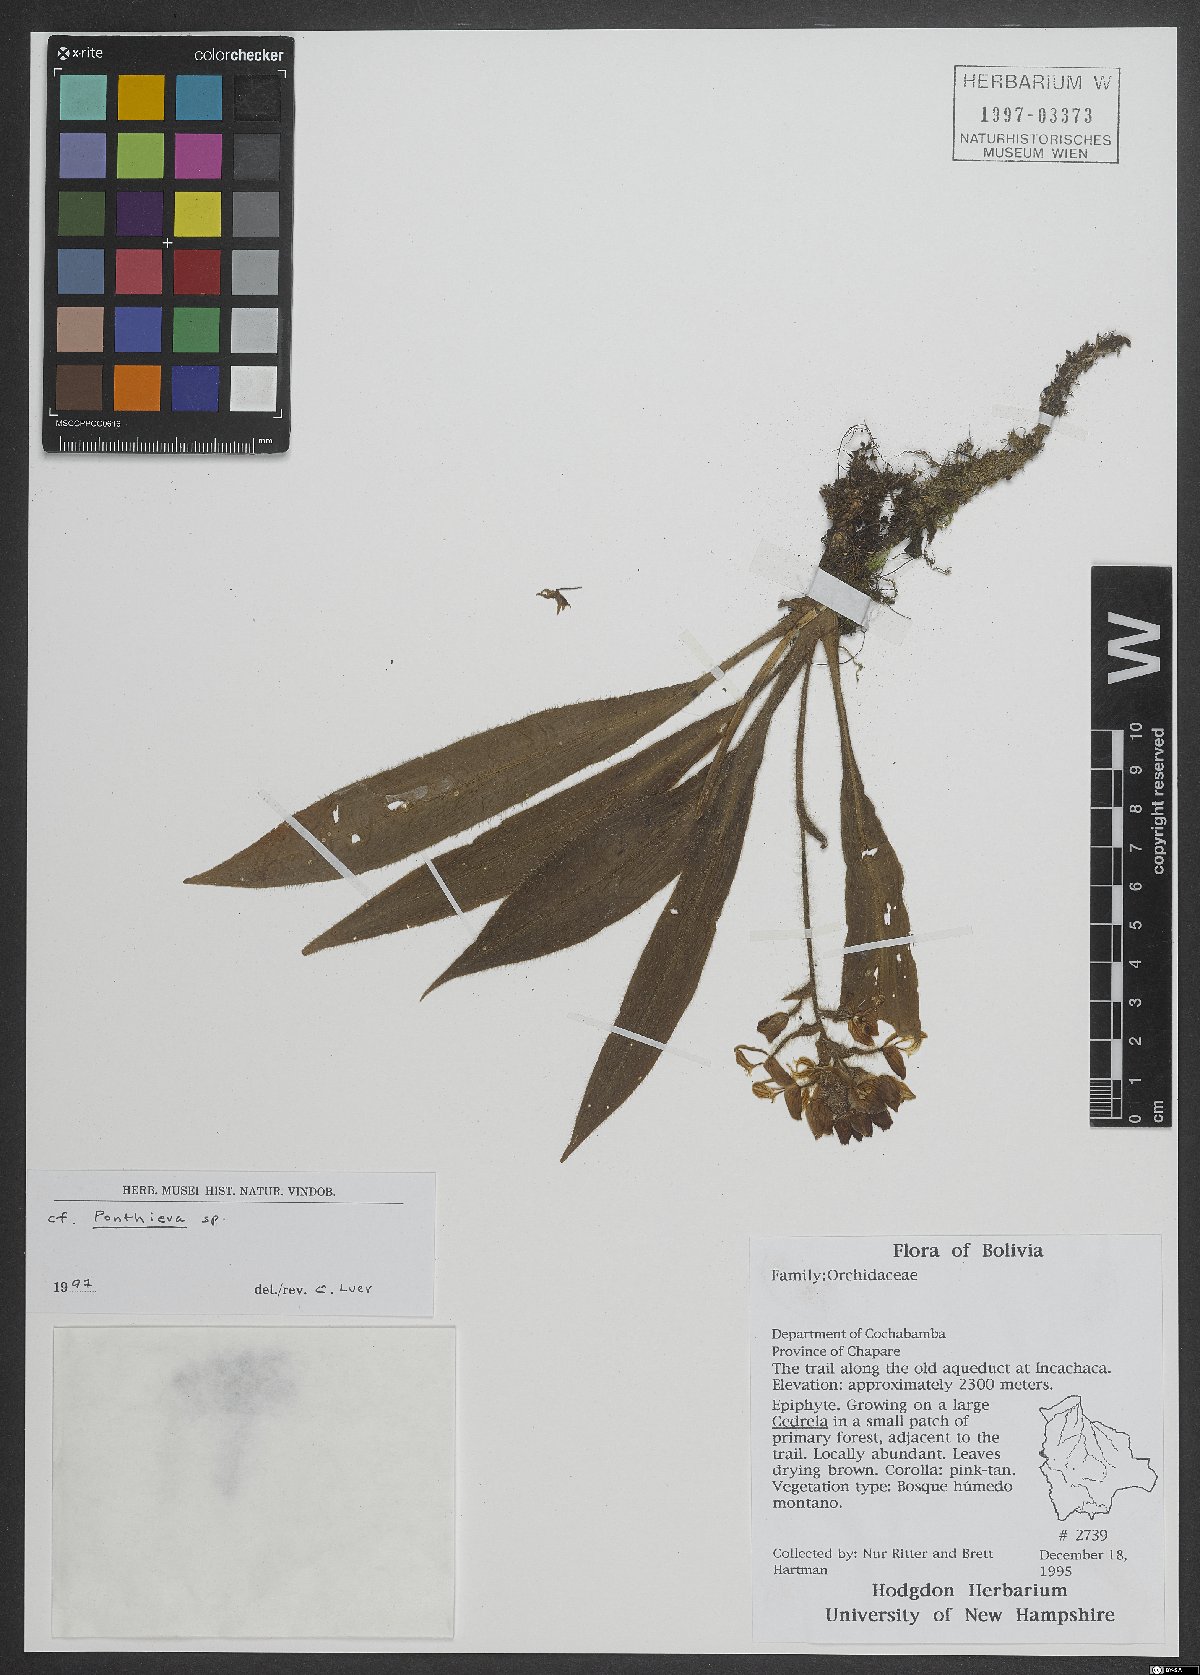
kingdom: Plantae
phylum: Tracheophyta
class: Liliopsida
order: Asparagales
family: Orchidaceae
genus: Ponthieva
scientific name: Ponthieva
